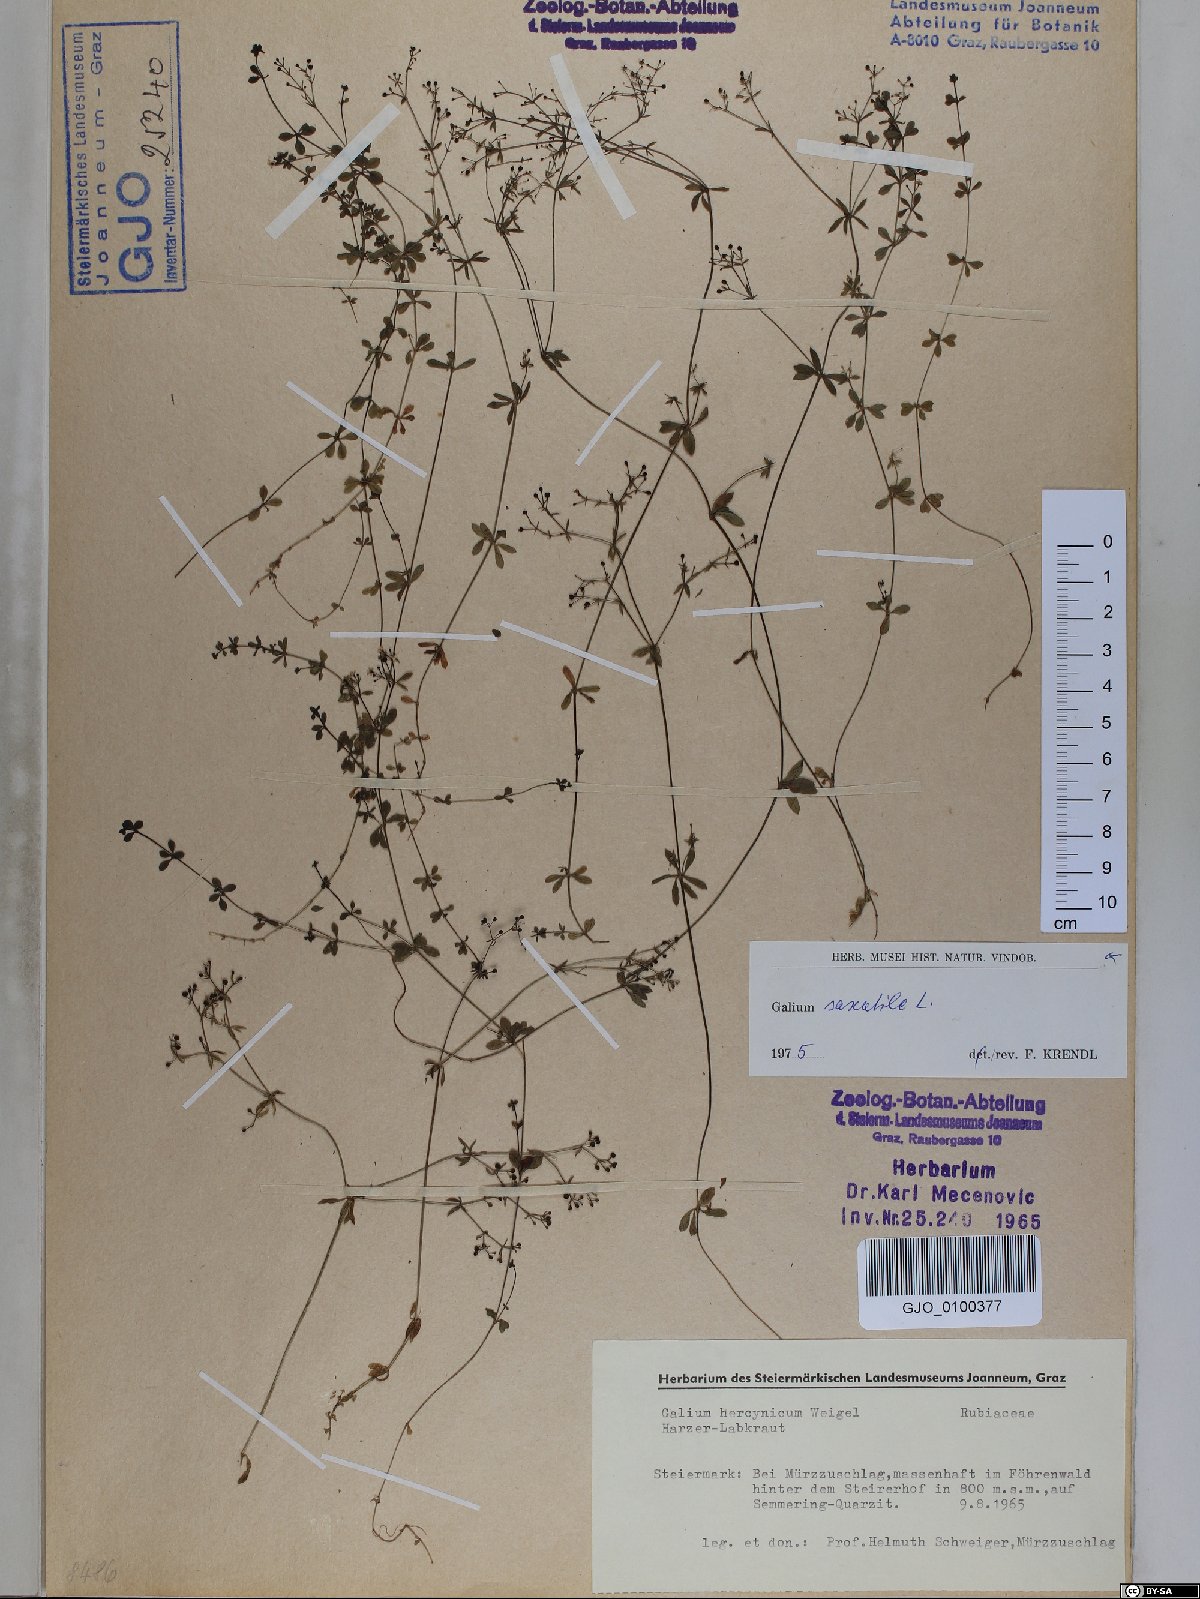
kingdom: Plantae
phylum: Tracheophyta
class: Magnoliopsida
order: Gentianales
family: Rubiaceae
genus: Galium
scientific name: Galium saxatile
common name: Heath bedstraw
